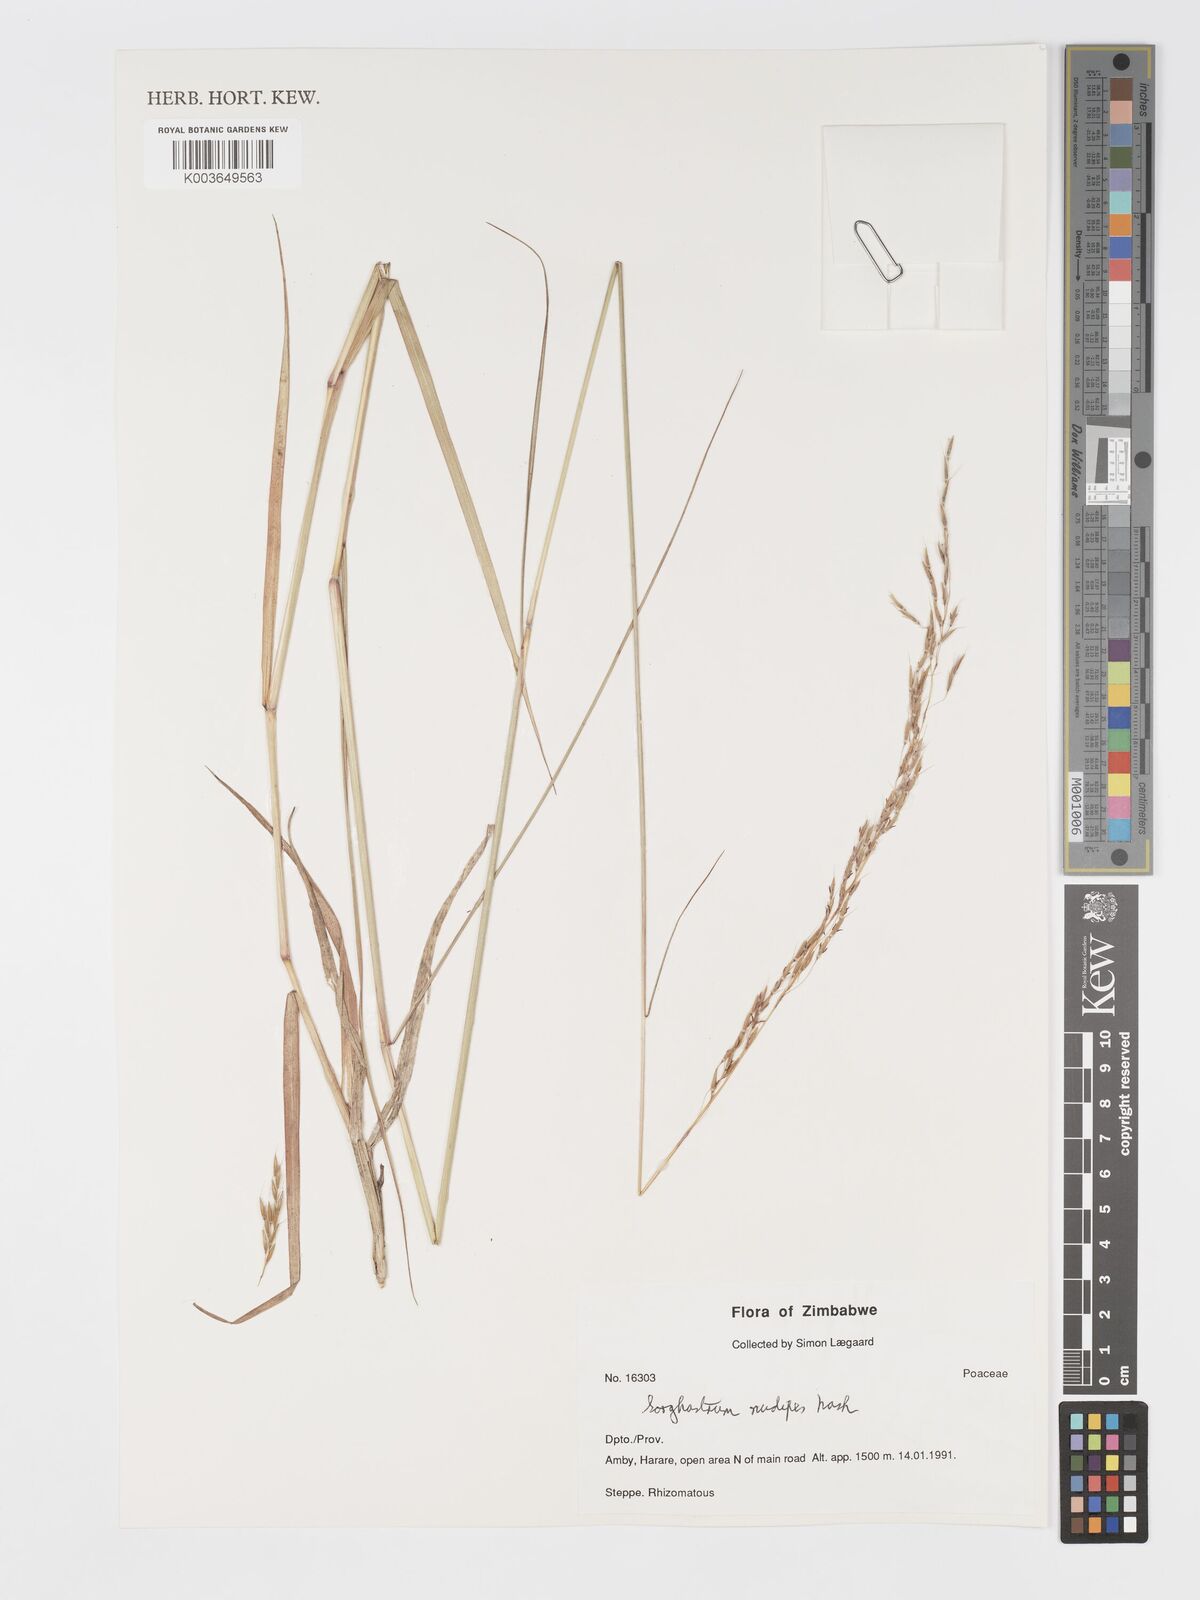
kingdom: Plantae
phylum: Tracheophyta
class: Liliopsida
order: Poales
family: Poaceae
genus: Sorghastrum
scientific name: Sorghastrum nudipes
